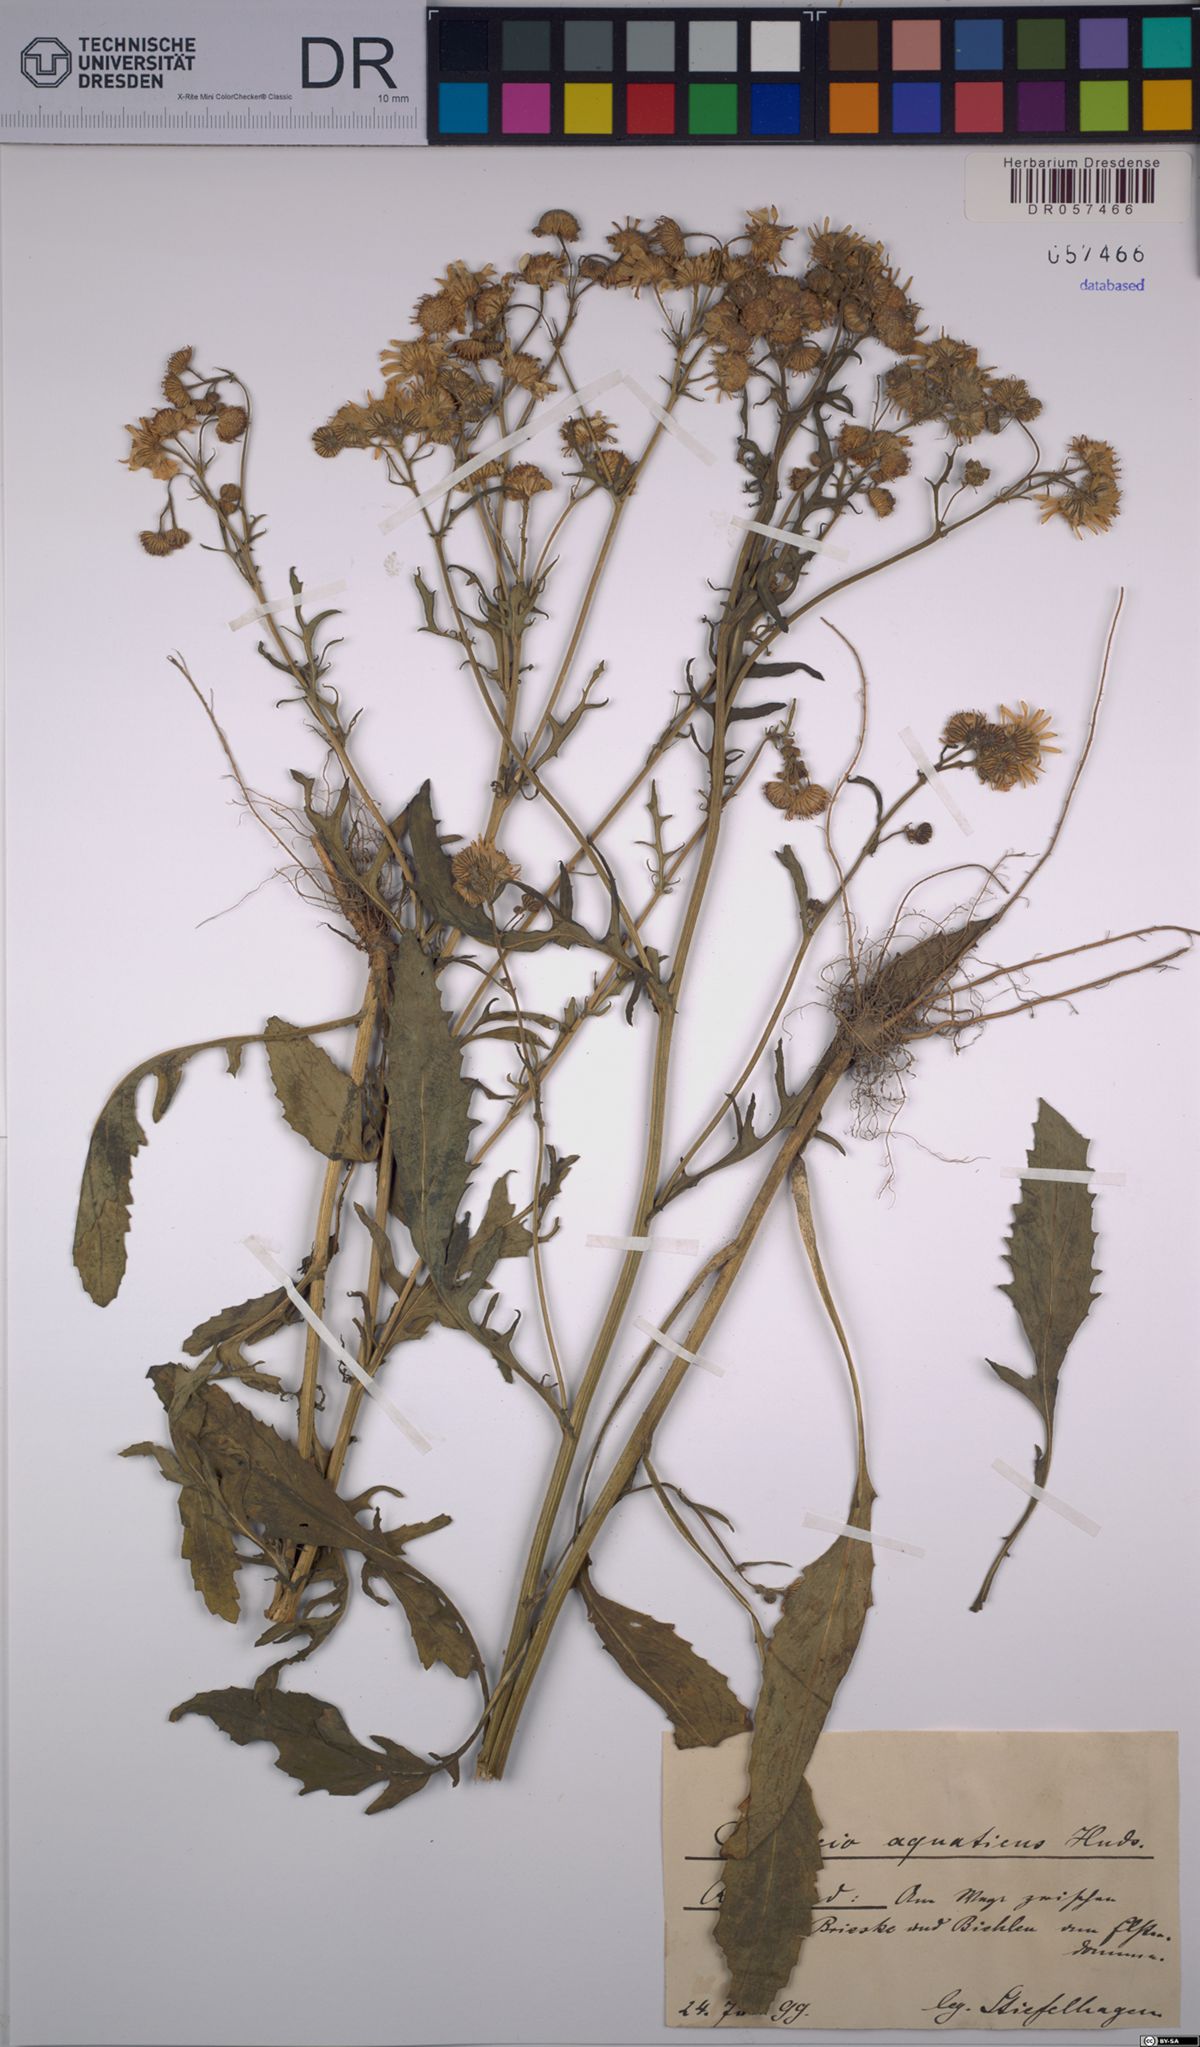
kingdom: Plantae
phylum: Tracheophyta
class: Magnoliopsida
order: Asterales
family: Asteraceae
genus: Jacobaea
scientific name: Jacobaea aquatica
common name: Water ragwort
